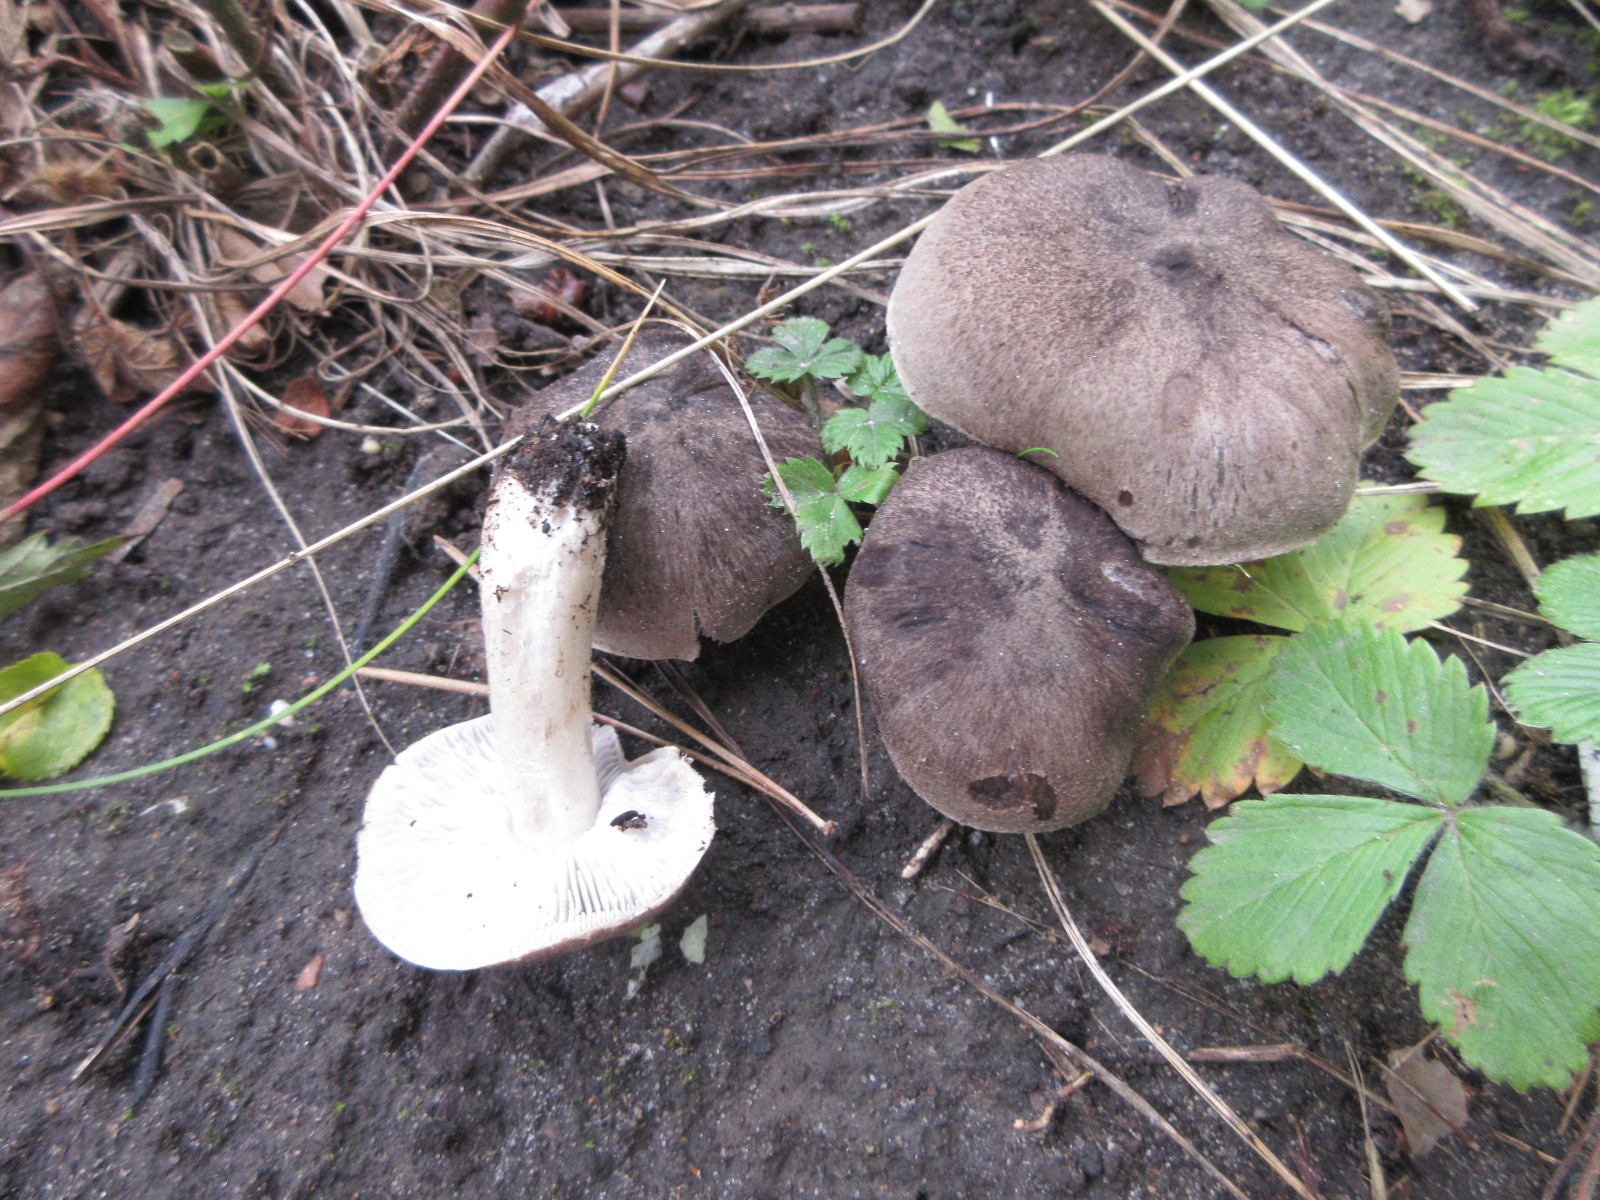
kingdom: Fungi
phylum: Basidiomycota
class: Agaricomycetes
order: Agaricales
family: Tricholomataceae
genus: Tricholoma
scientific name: Tricholoma terreum
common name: jordfarvet ridderhat
